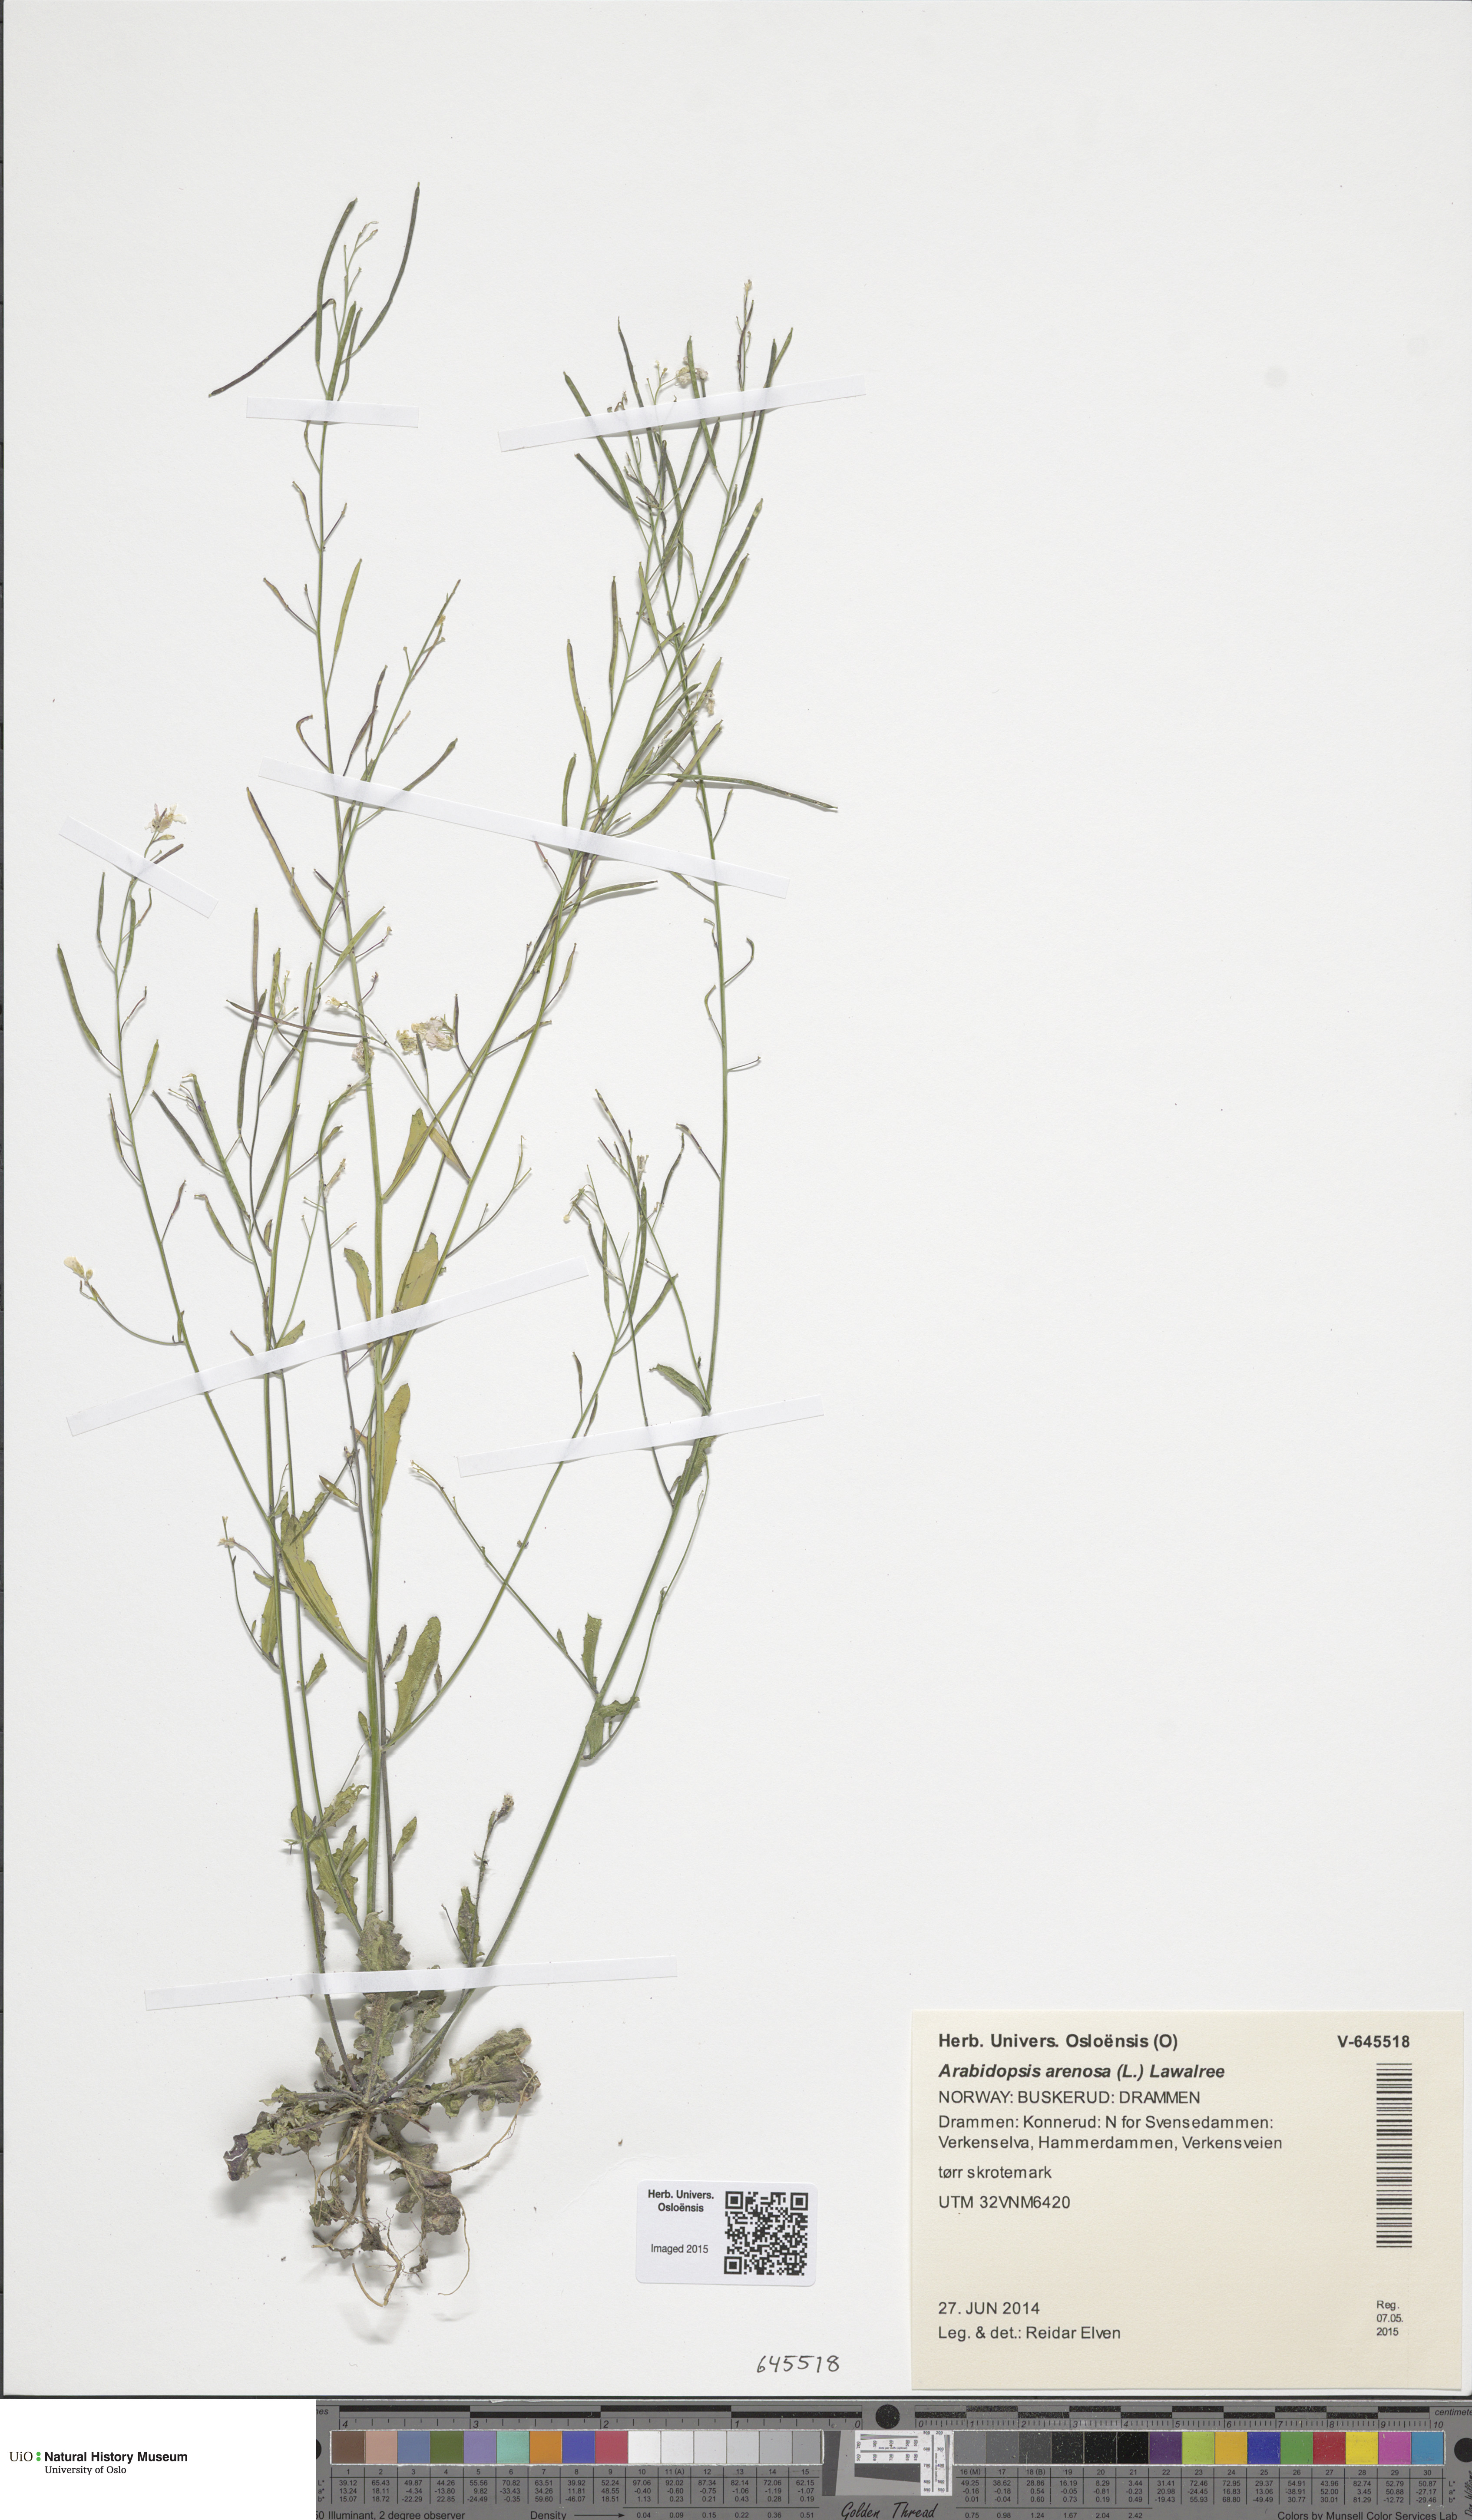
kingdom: Plantae
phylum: Tracheophyta
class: Magnoliopsida
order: Brassicales
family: Brassicaceae
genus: Arabidopsis
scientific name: Arabidopsis arenosa
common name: Sand rock-cress
